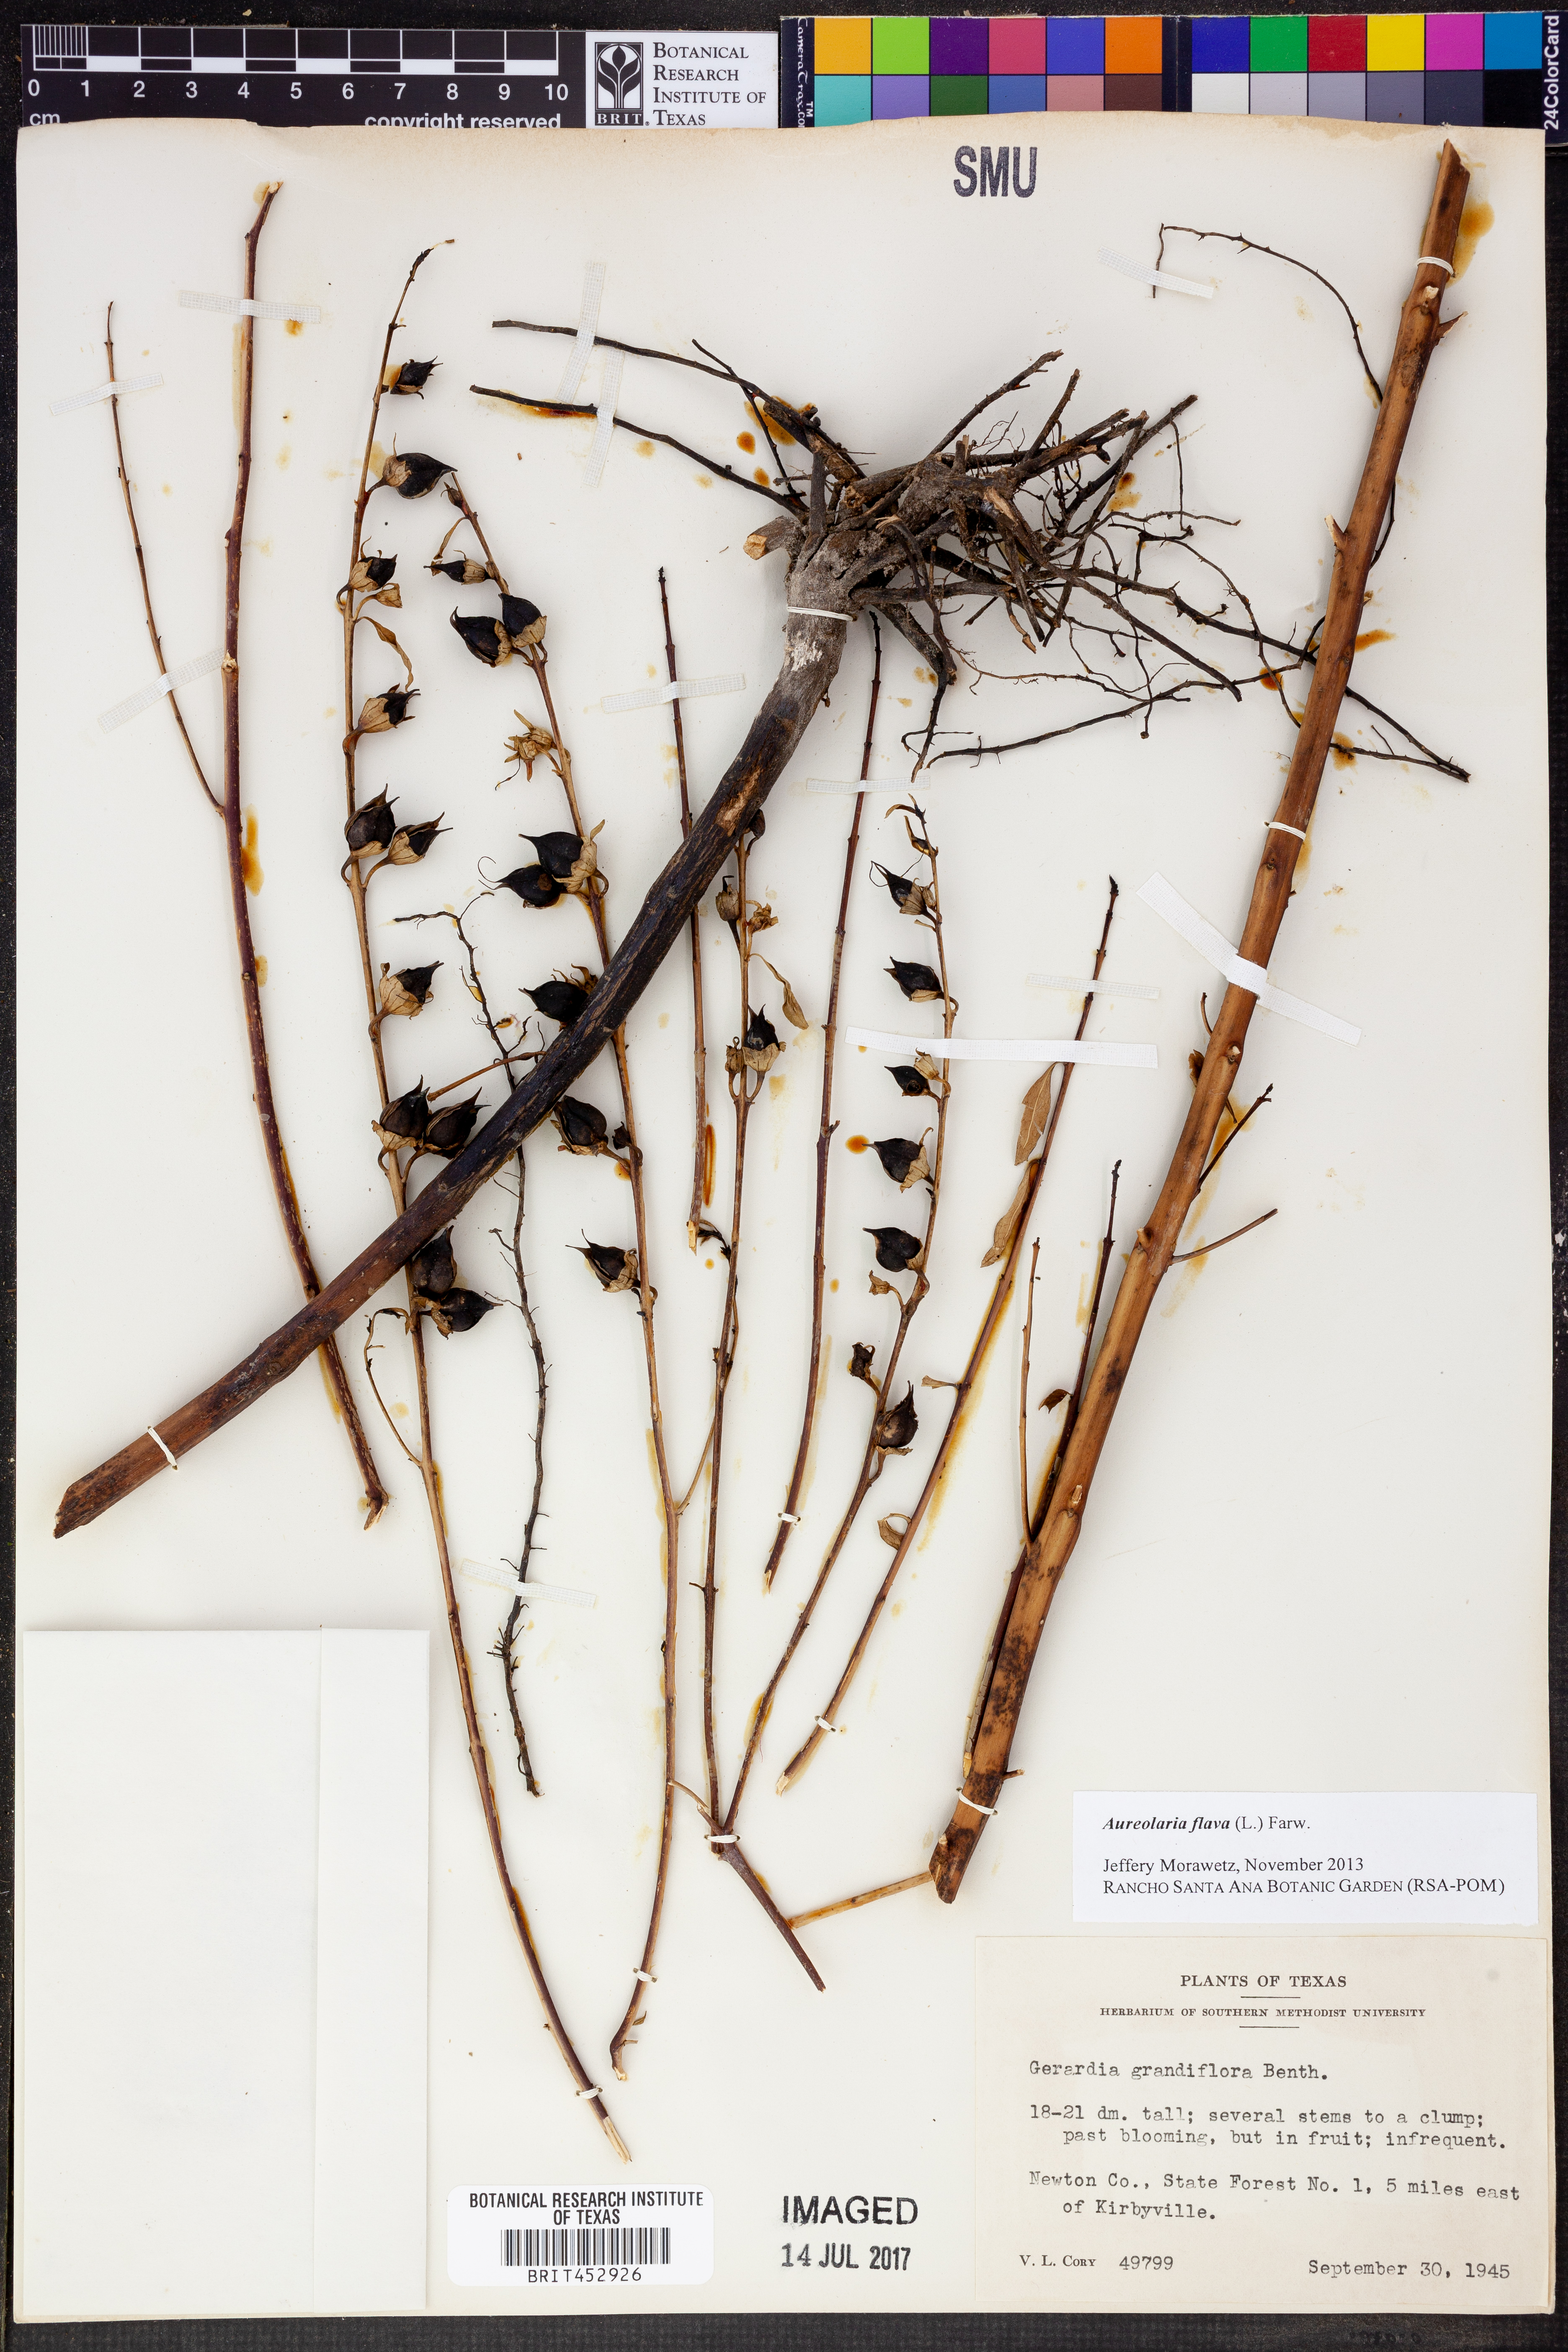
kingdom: Plantae
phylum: Tracheophyta
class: Magnoliopsida
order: Lamiales
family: Orobanchaceae
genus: Aureolaria
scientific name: Aureolaria flava
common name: Smooth false foxglove
